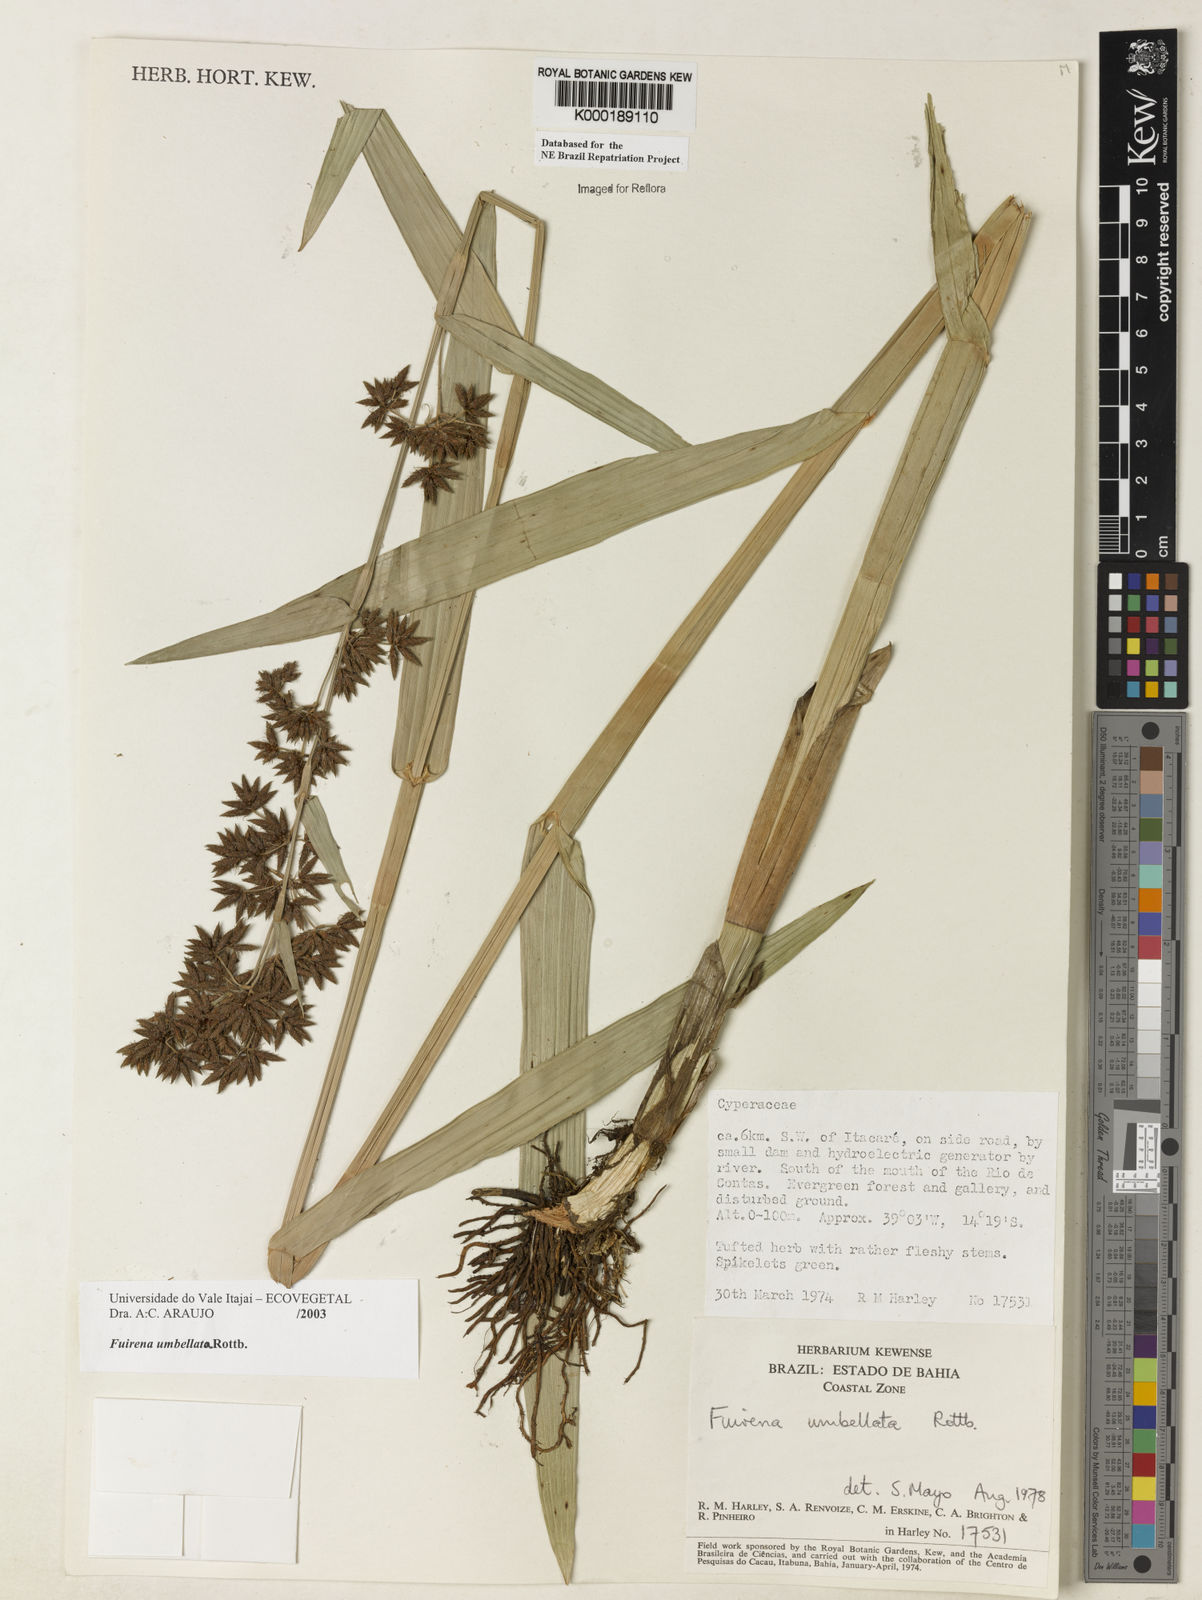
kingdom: Plantae
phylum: Tracheophyta
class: Liliopsida
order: Poales
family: Cyperaceae
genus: Fuirena
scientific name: Fuirena umbellata
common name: Yefen
